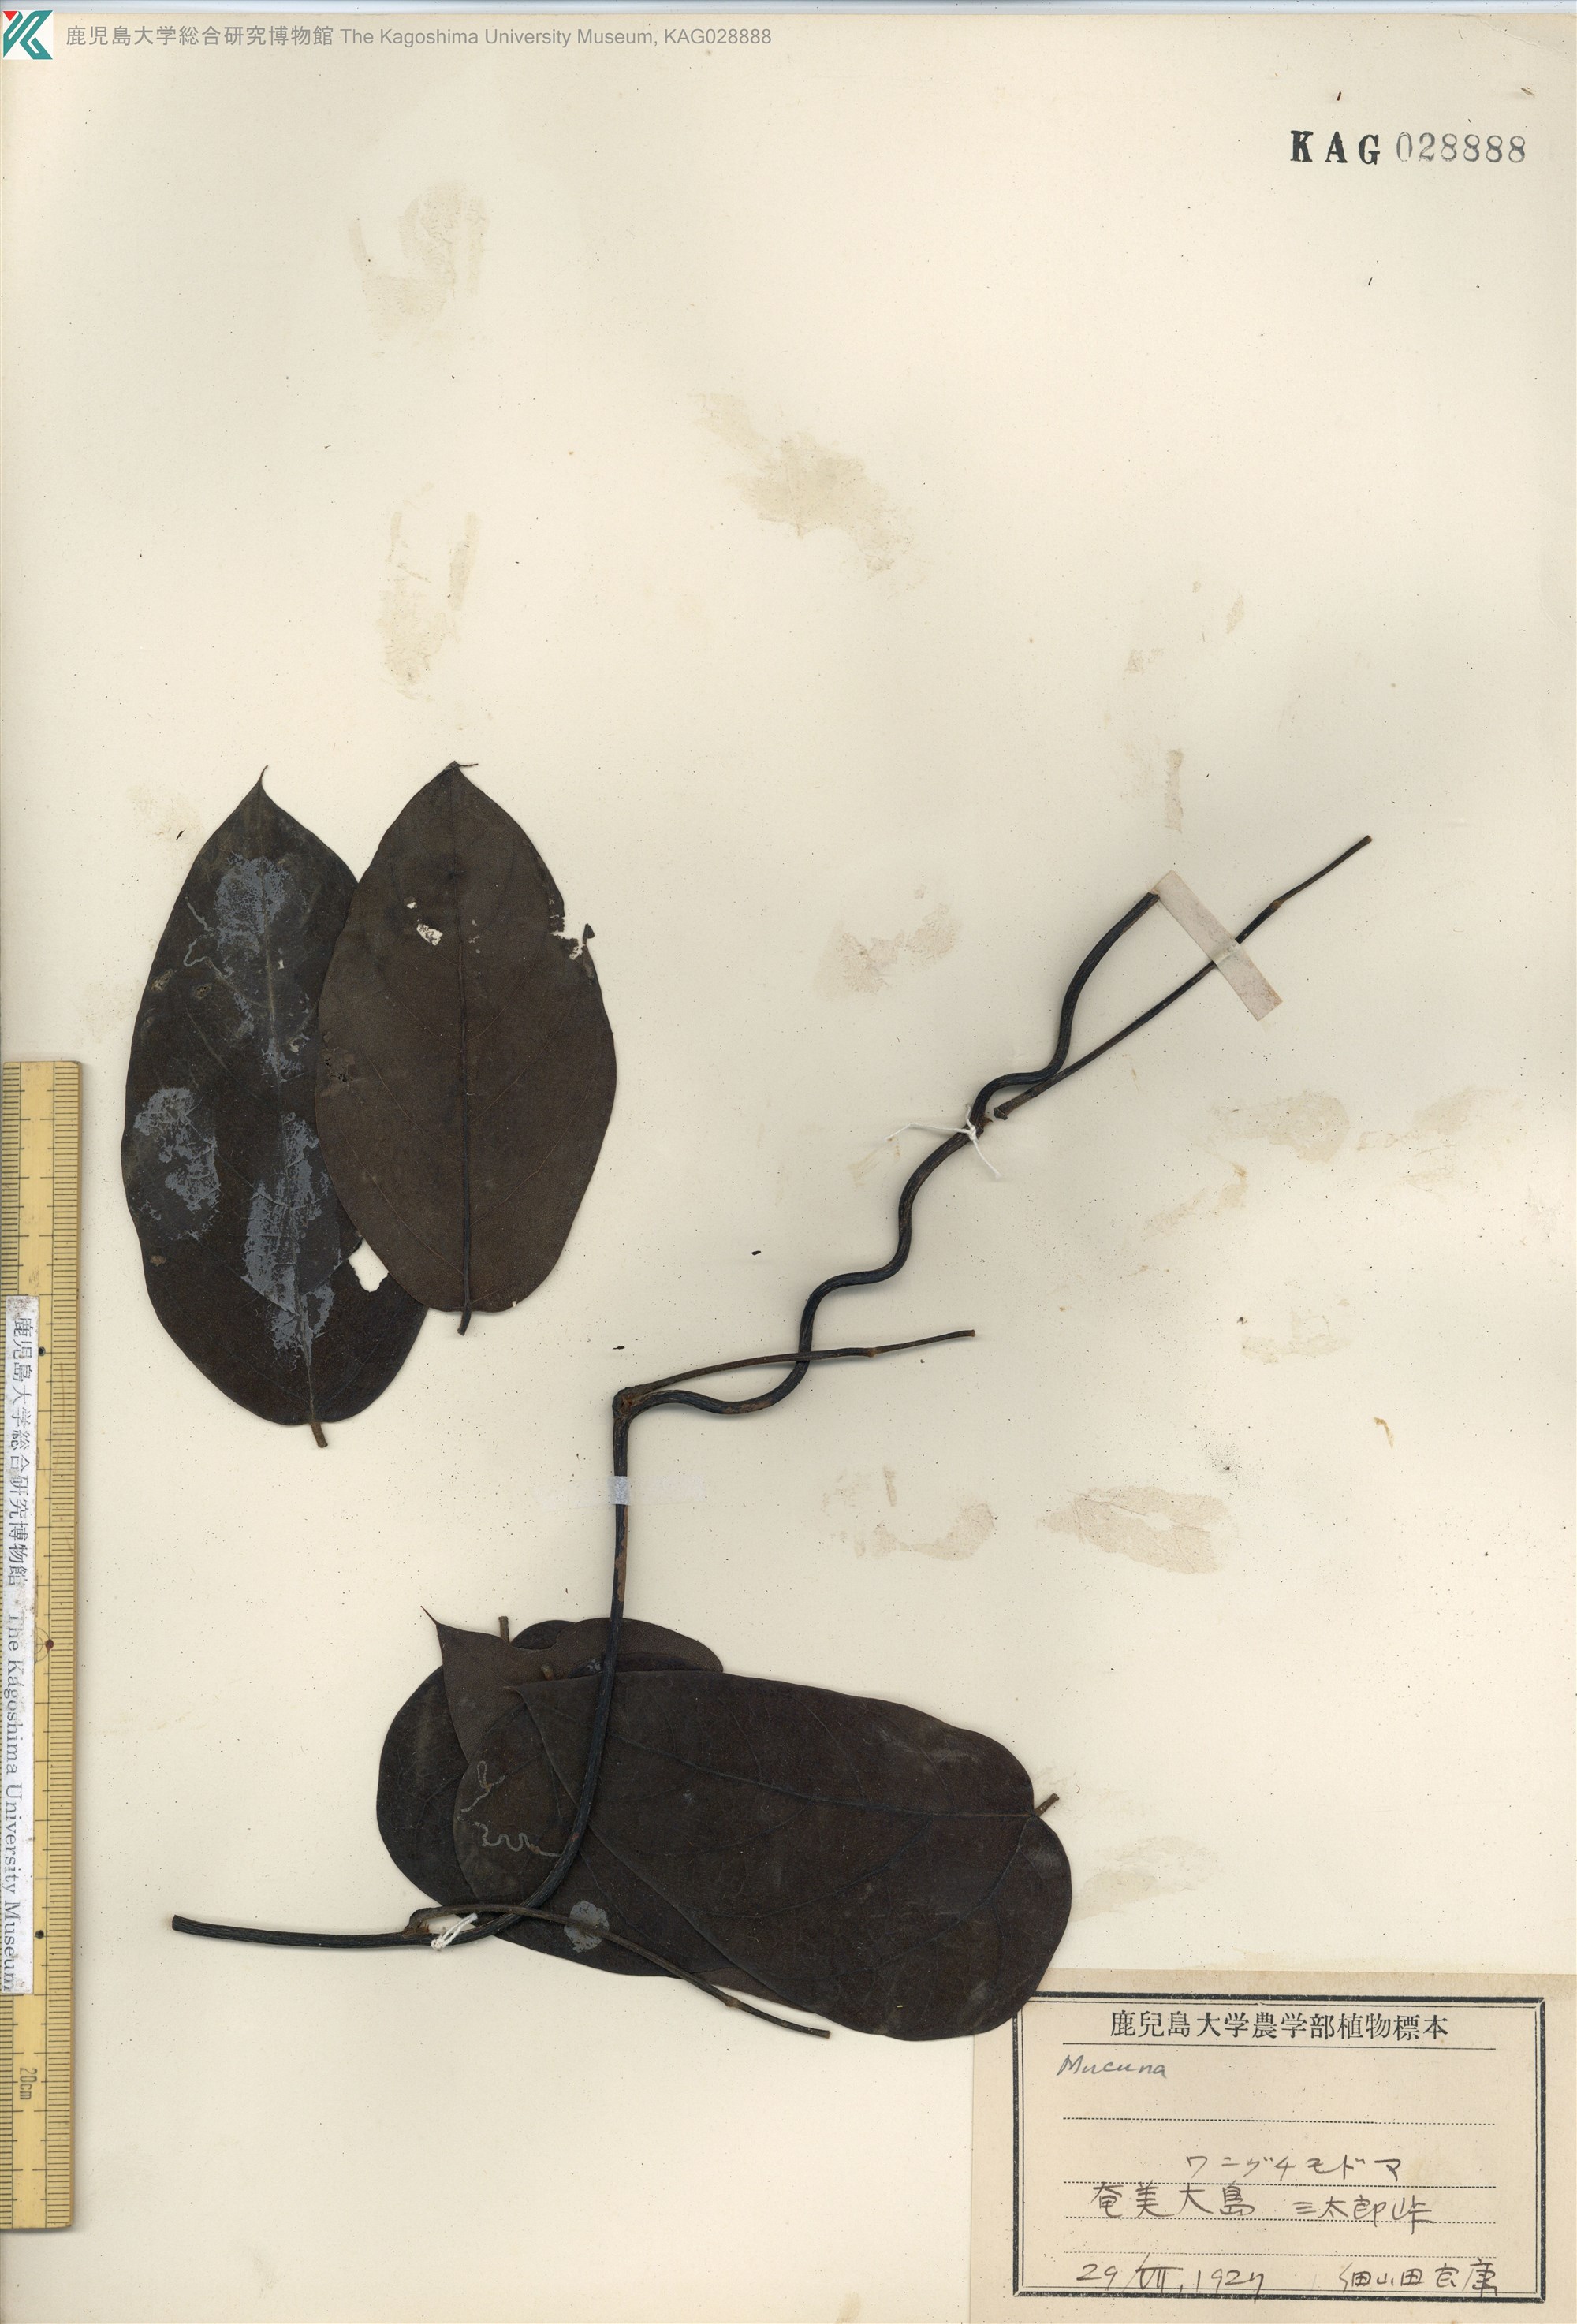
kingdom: Plantae
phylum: Tracheophyta
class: Magnoliopsida
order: Fabales
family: Fabaceae
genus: Mucuna
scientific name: Mucuna macrocarpa
